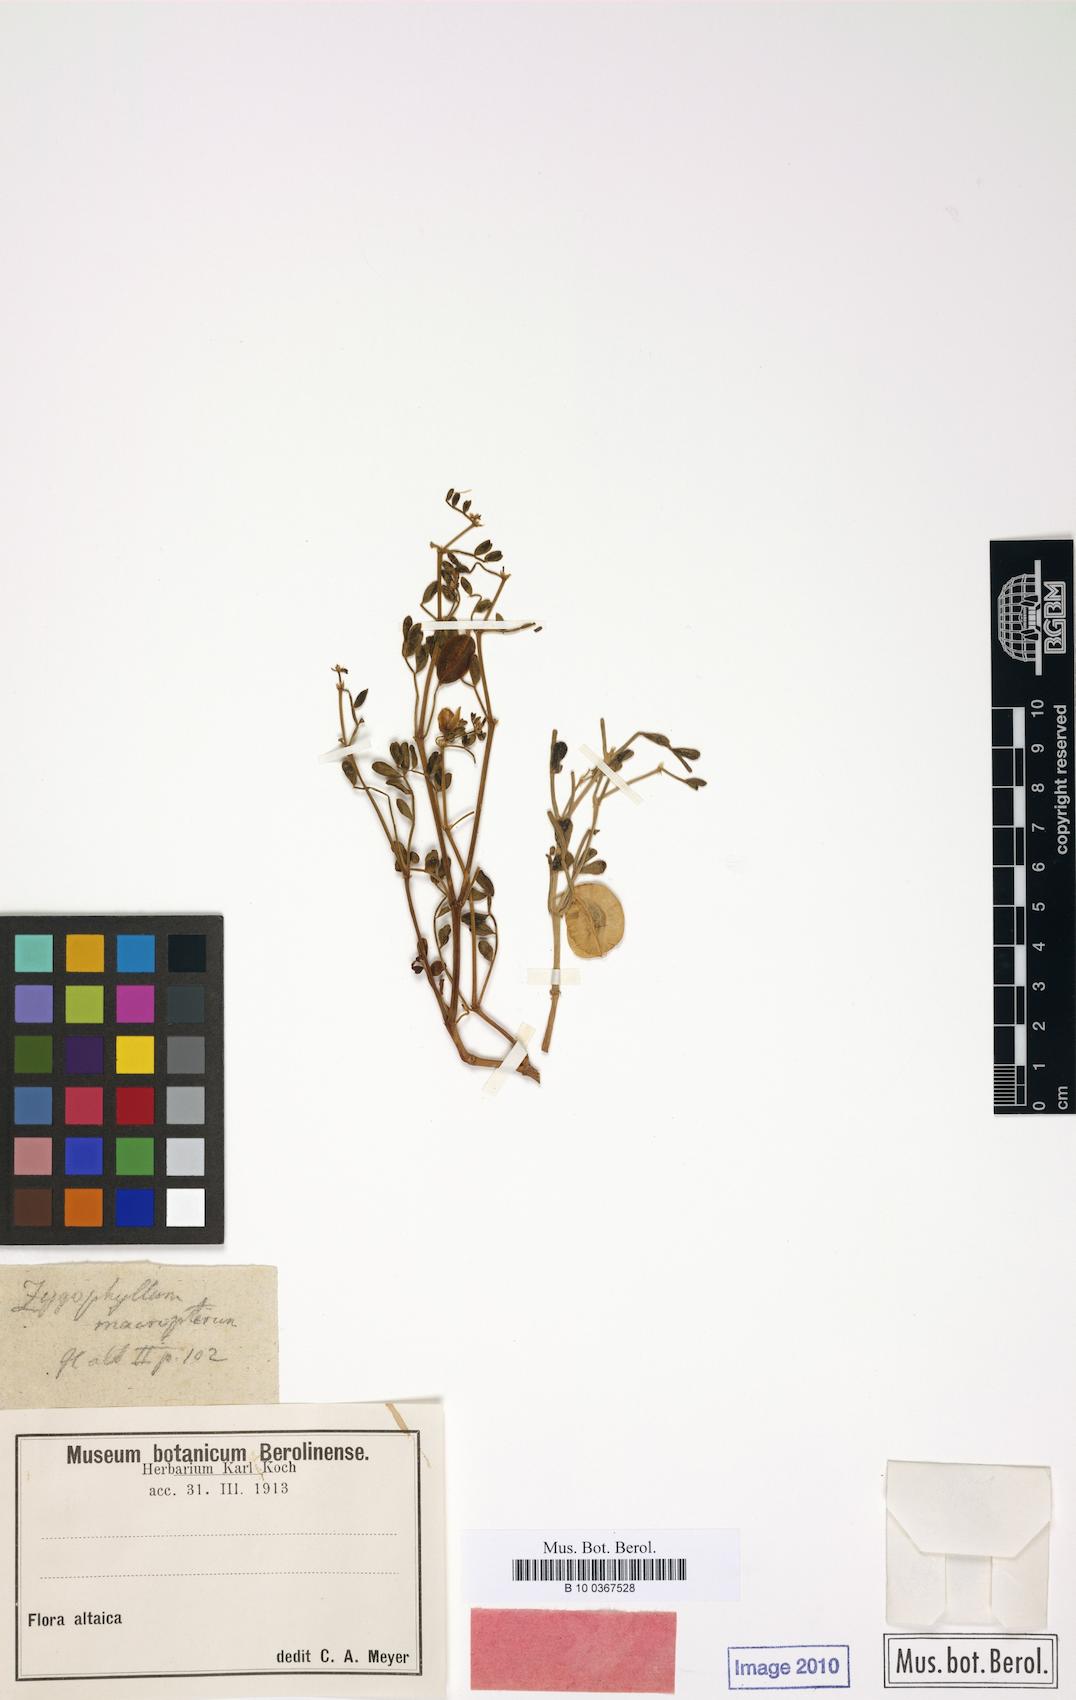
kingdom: Plantae
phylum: Tracheophyta
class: Magnoliopsida
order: Zygophyllales
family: Zygophyllaceae
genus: Zygophyllum
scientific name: Zygophyllum pinnatum
